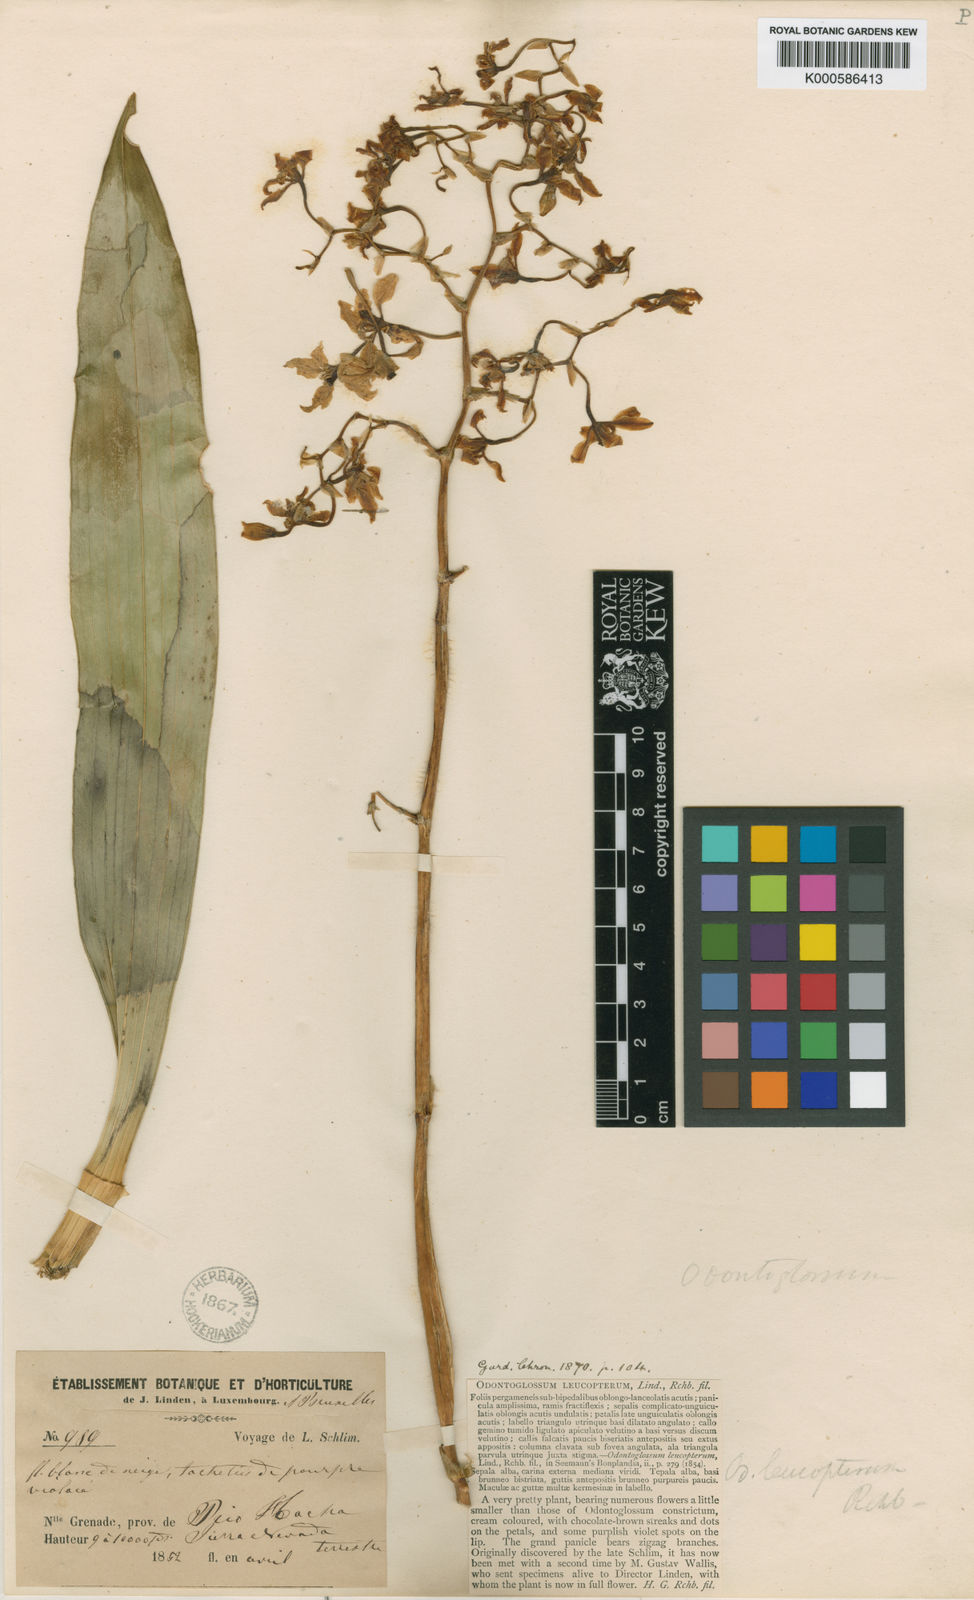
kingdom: Plantae
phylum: Tracheophyta
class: Liliopsida
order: Asparagales
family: Orchidaceae
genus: Cyrtochilum
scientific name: Cyrtochilum
